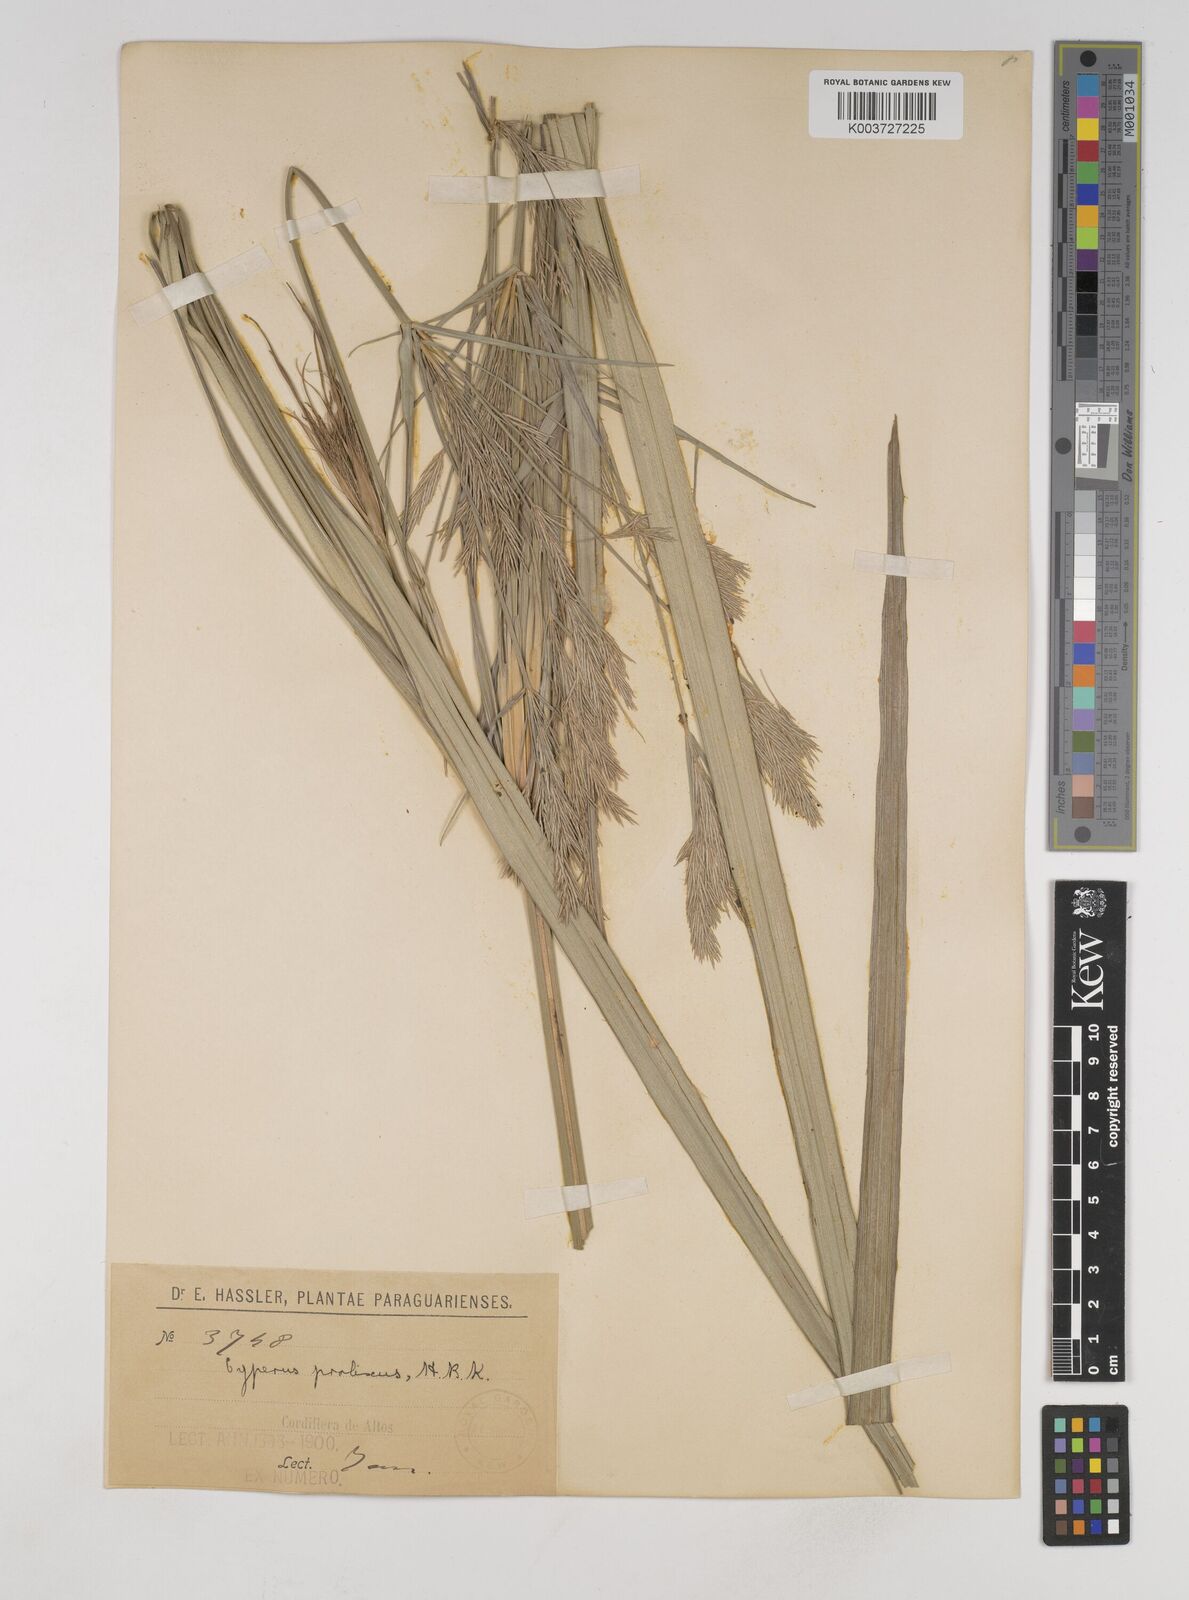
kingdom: Plantae
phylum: Tracheophyta
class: Liliopsida
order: Poales
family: Cyperaceae
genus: Cyperus
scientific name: Cyperus prolixus
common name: Mosquito flatsedge
